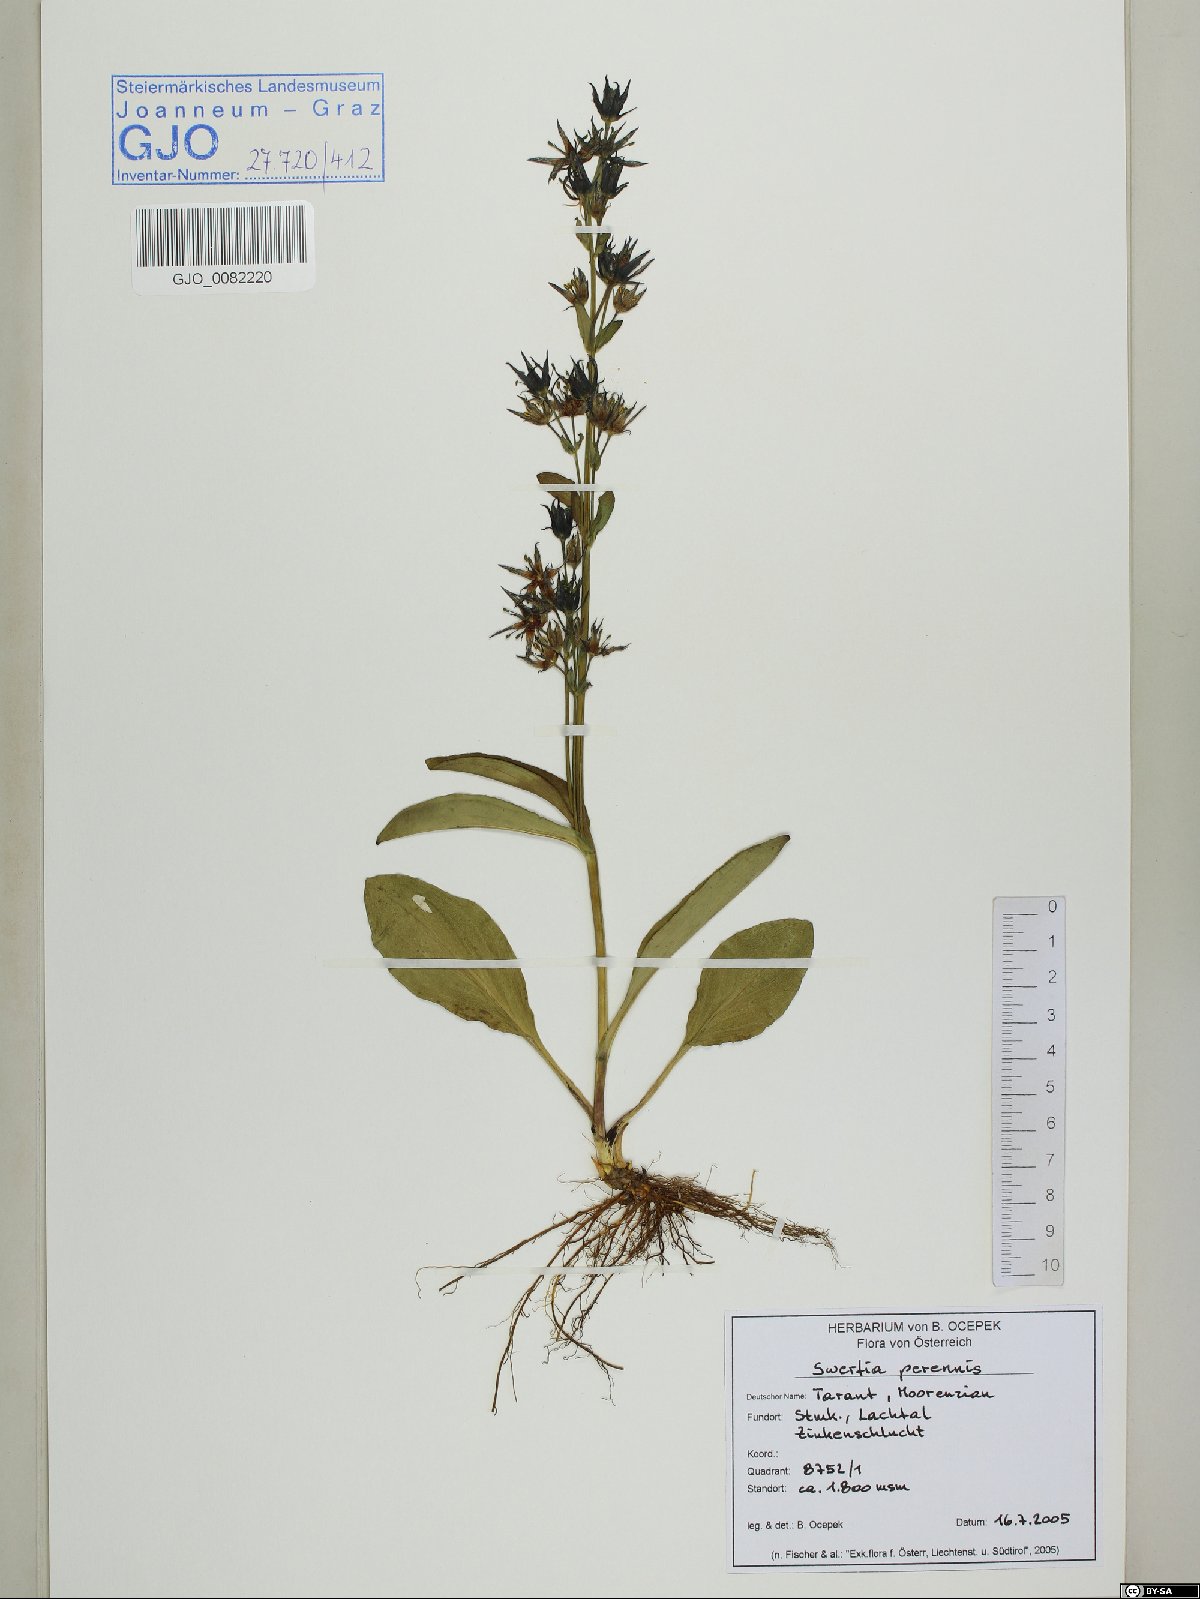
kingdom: Plantae
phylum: Tracheophyta
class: Magnoliopsida
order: Gentianales
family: Gentianaceae
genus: Swertia
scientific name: Swertia perennis
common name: Alpine bog swertia
